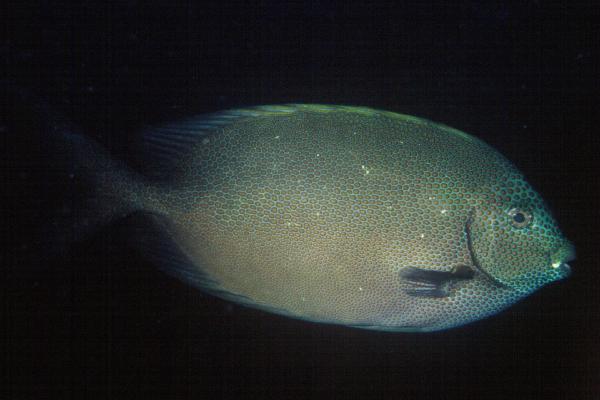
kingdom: Animalia
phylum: Chordata
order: Perciformes
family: Siganidae
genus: Siganus
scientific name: Siganus punctatus
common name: Gold-spotted rabbitfish
